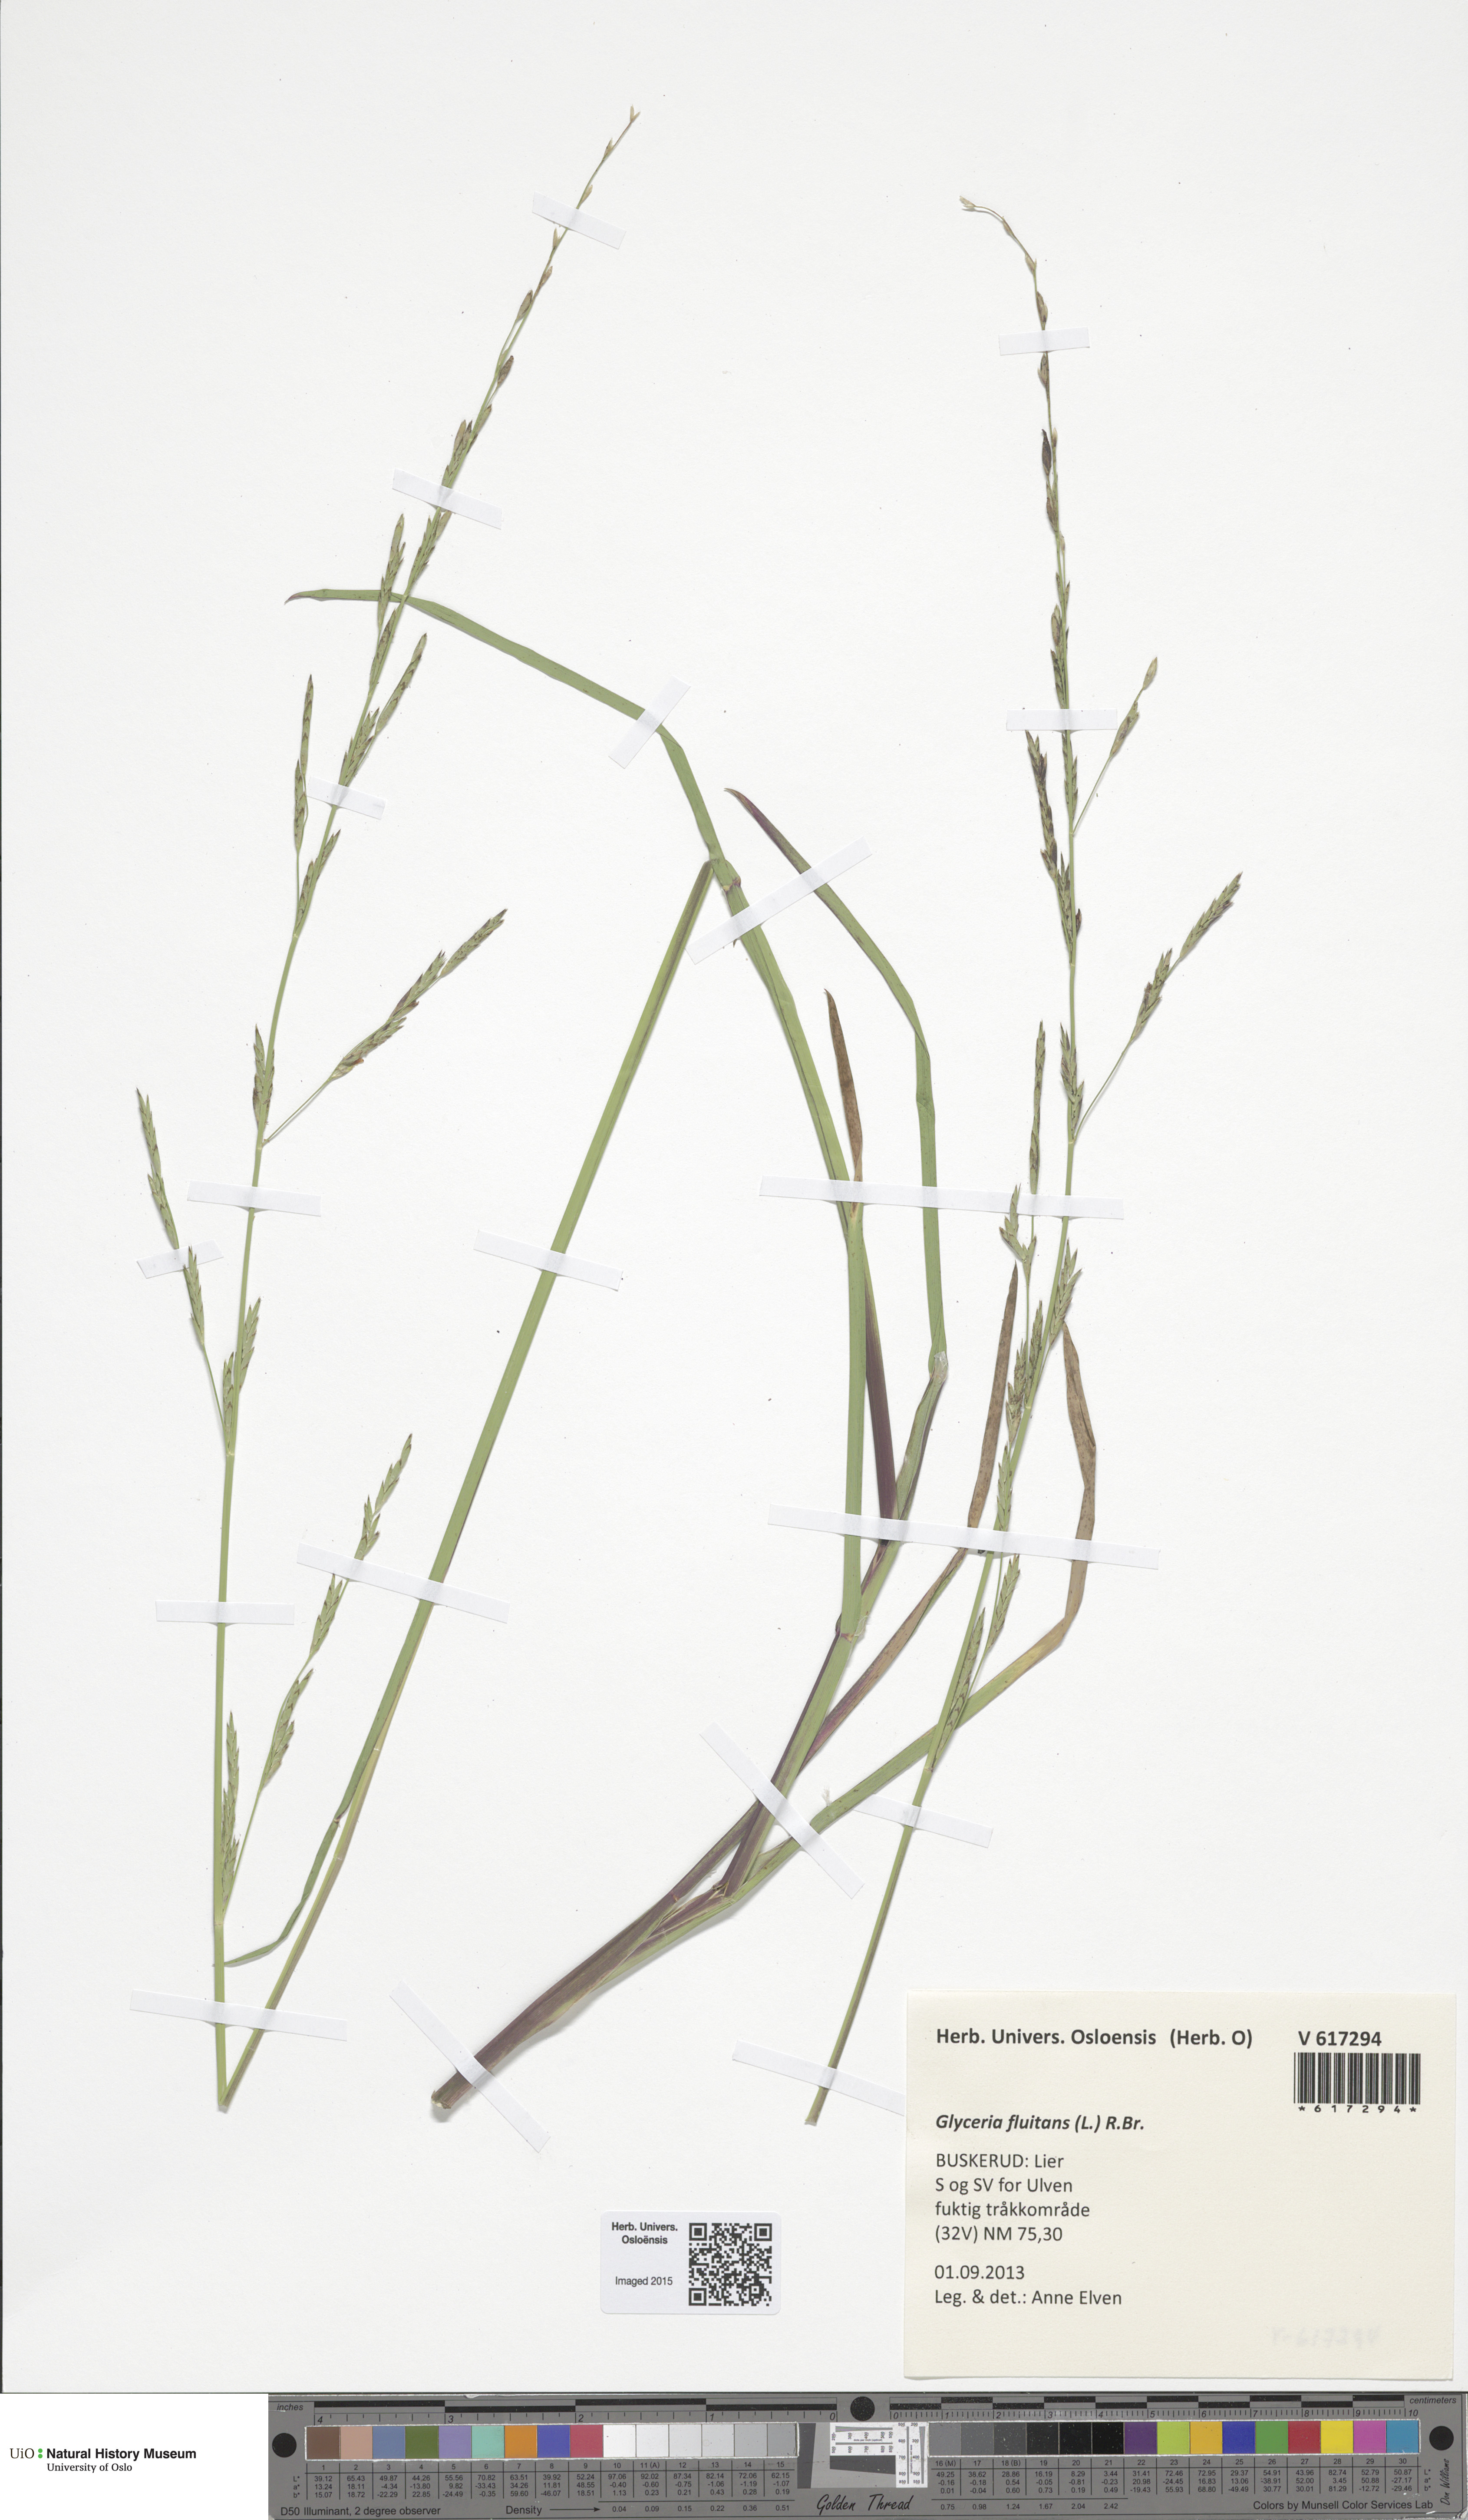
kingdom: Plantae
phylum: Tracheophyta
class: Liliopsida
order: Poales
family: Poaceae
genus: Glyceria
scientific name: Glyceria fluitans
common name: Floating sweet-grass
